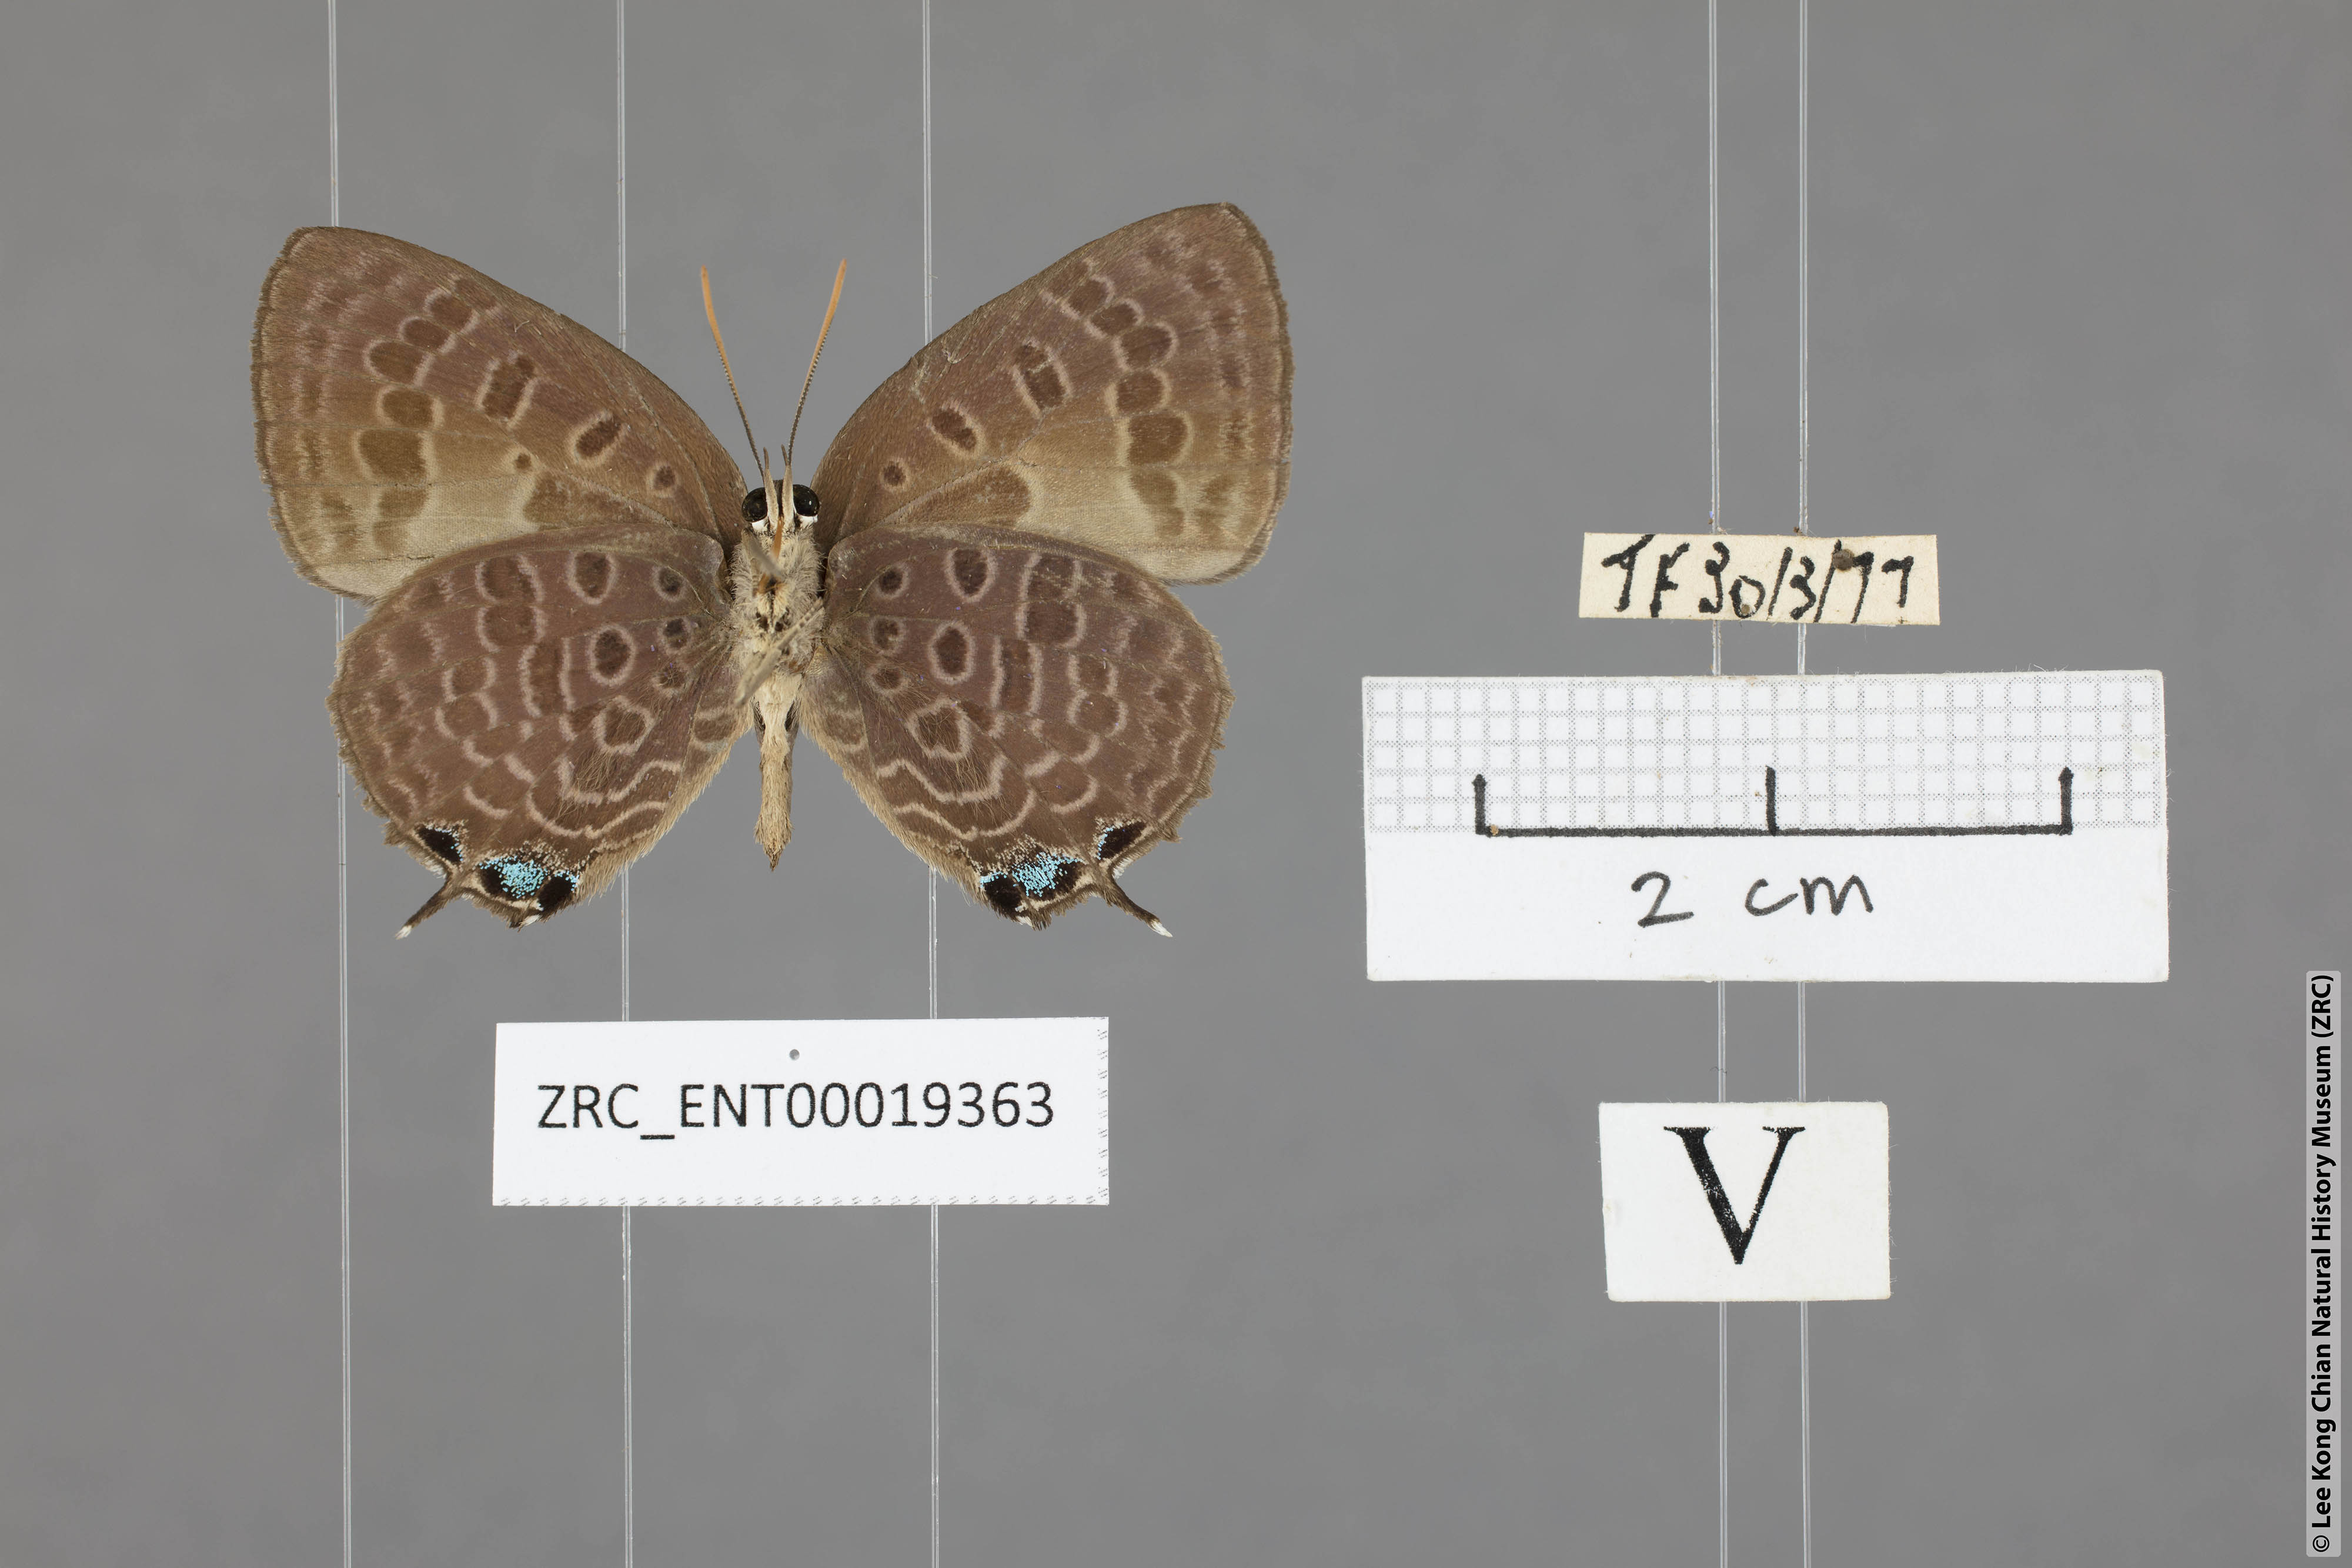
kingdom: Animalia
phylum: Arthropoda
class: Insecta
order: Lepidoptera
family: Lycaenidae
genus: Arhopala
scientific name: Arhopala corinda
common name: Ultramarine oakblue
